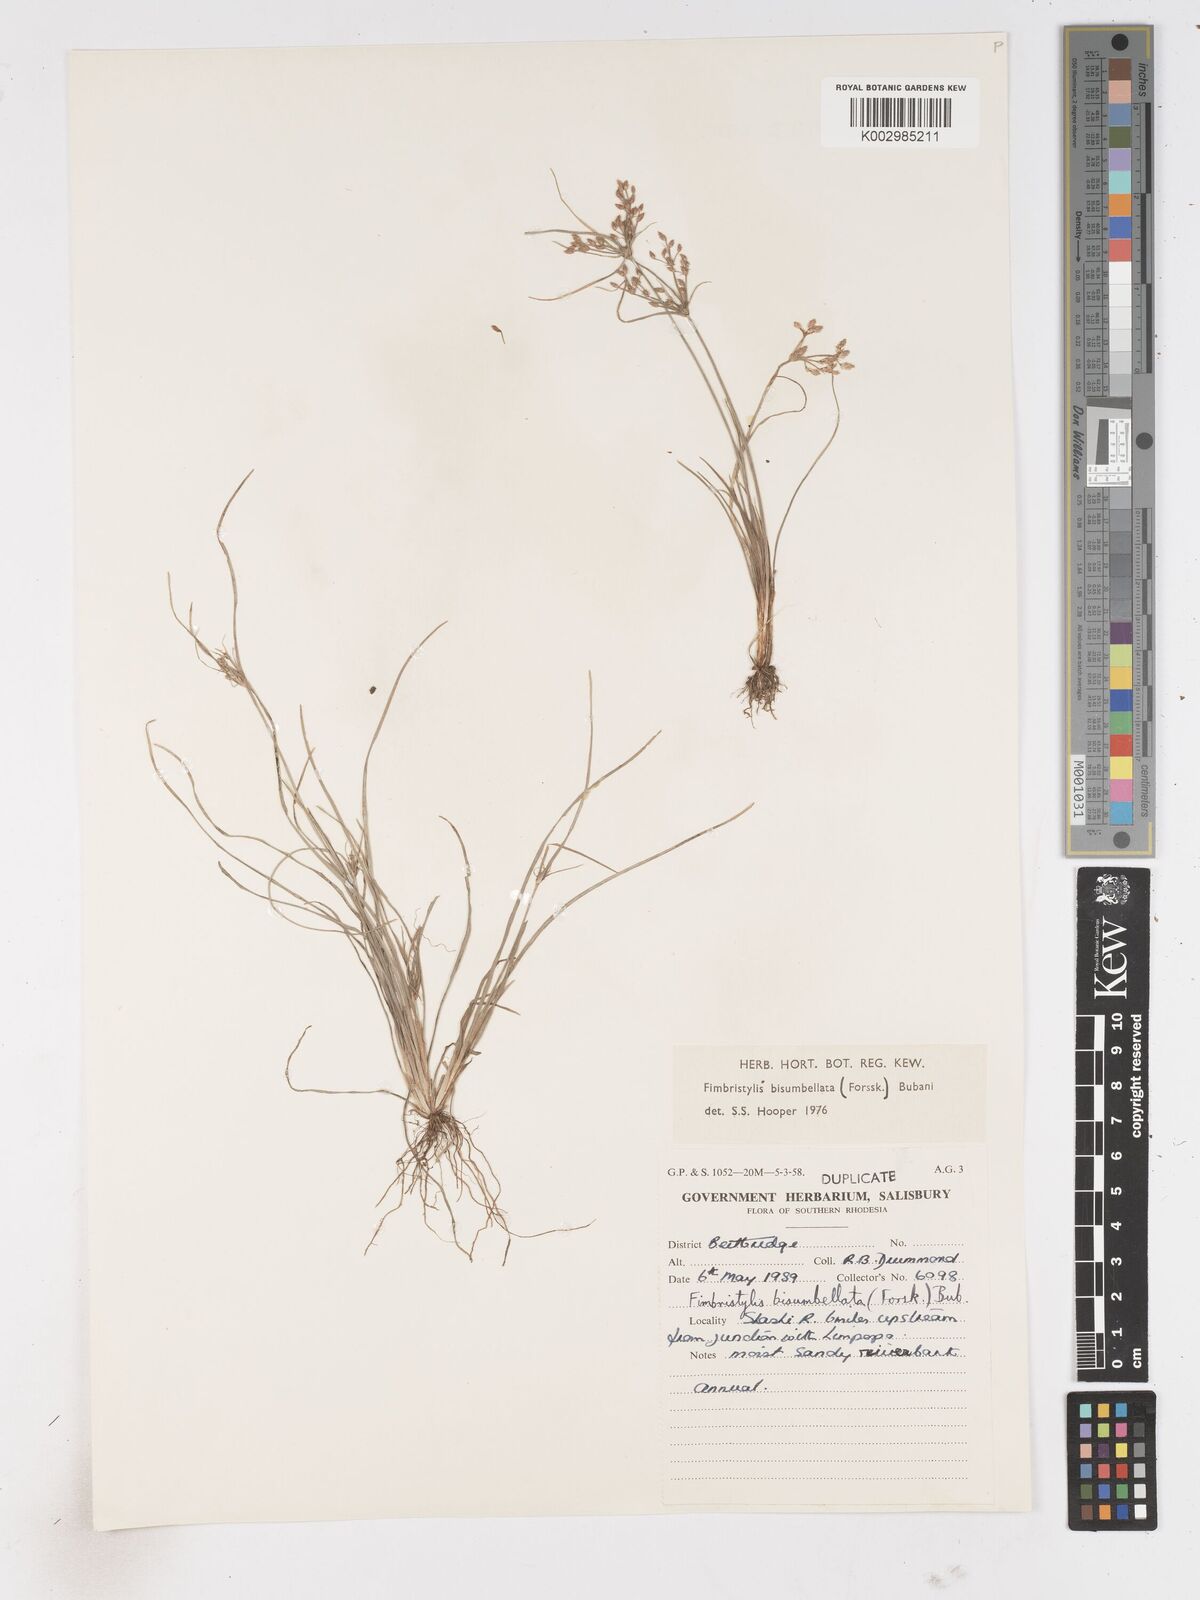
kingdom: Plantae
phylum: Tracheophyta
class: Liliopsida
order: Poales
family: Cyperaceae
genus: Fimbristylis
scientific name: Fimbristylis bisumbellata
